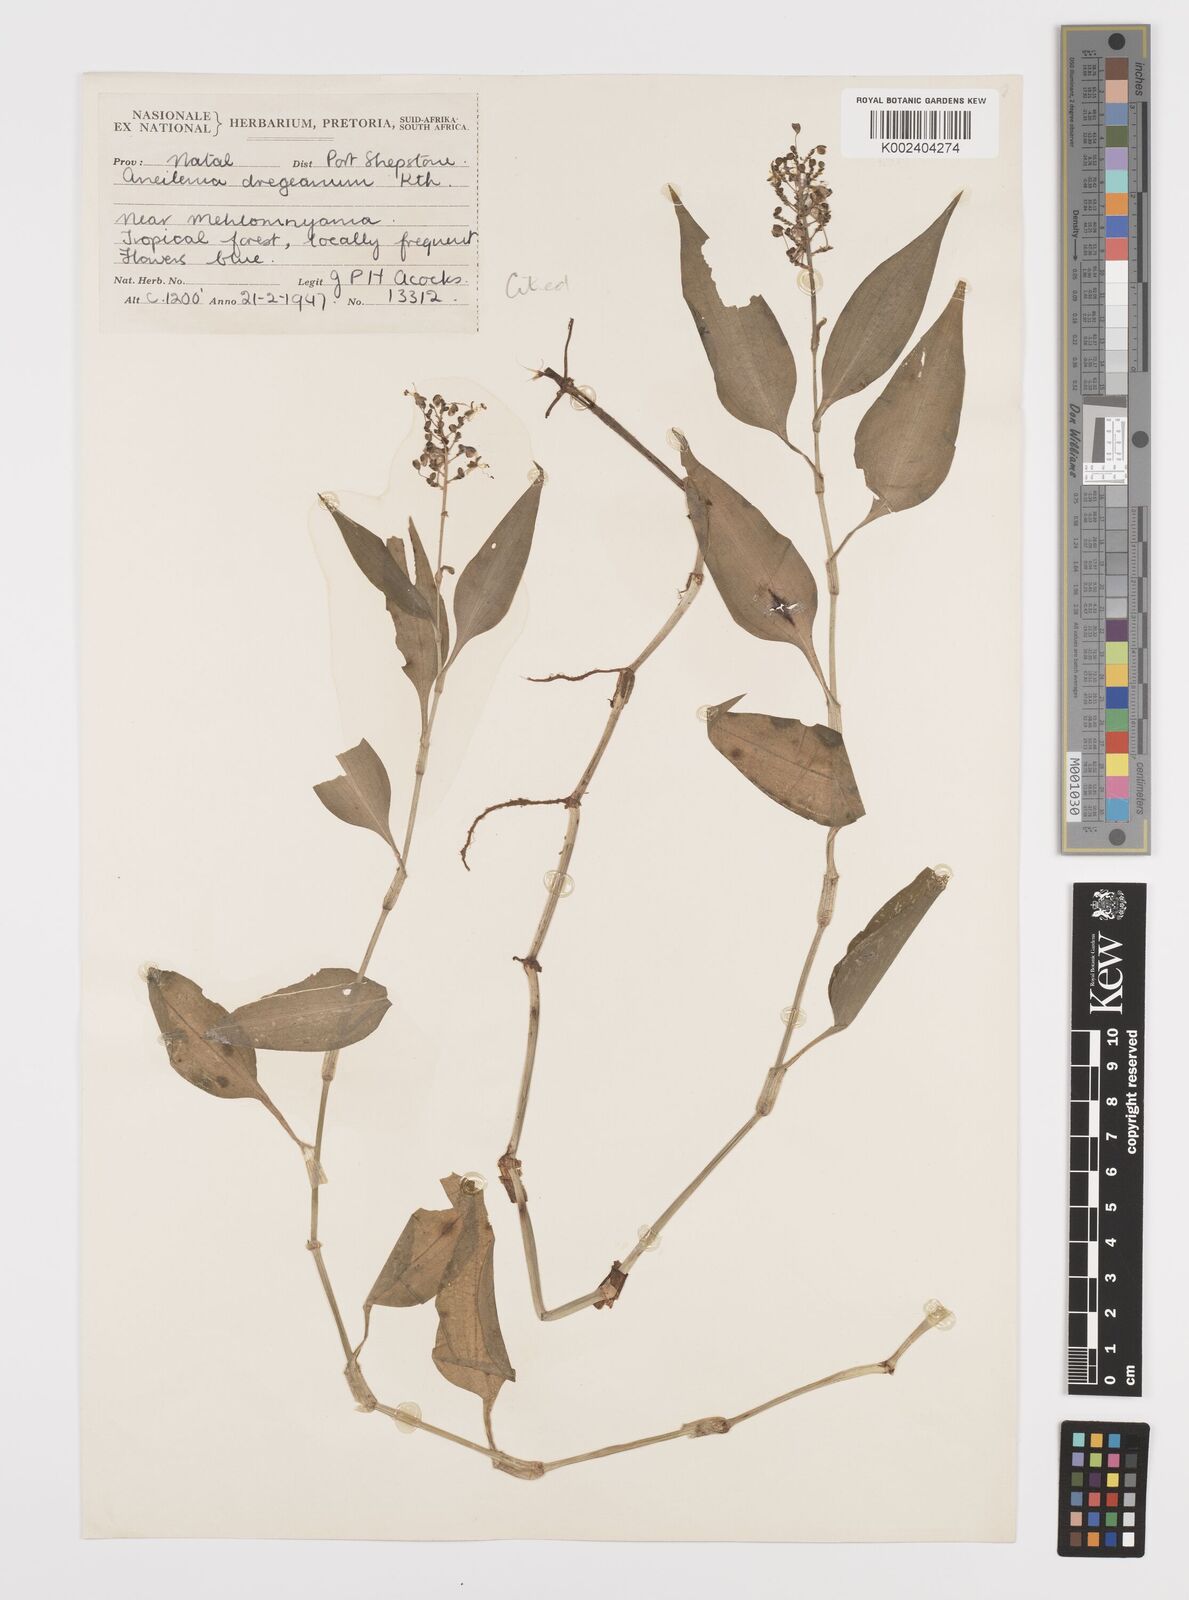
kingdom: Plantae
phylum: Tracheophyta
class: Liliopsida
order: Commelinales
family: Commelinaceae
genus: Aneilema
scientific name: Aneilema dregeanum
